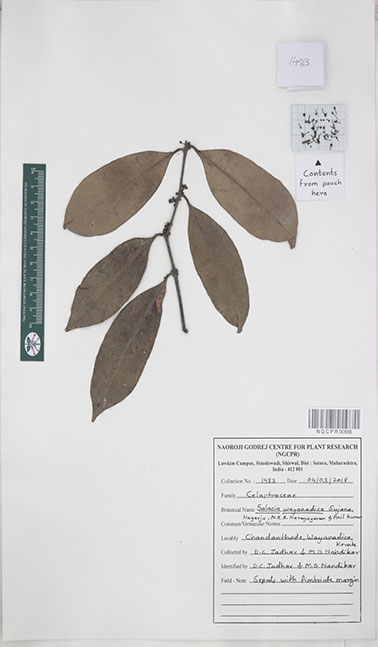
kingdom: Plantae
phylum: Tracheophyta
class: Magnoliopsida
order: Celastrales
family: Celastraceae
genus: Salacia
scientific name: Salacia wayanadica
